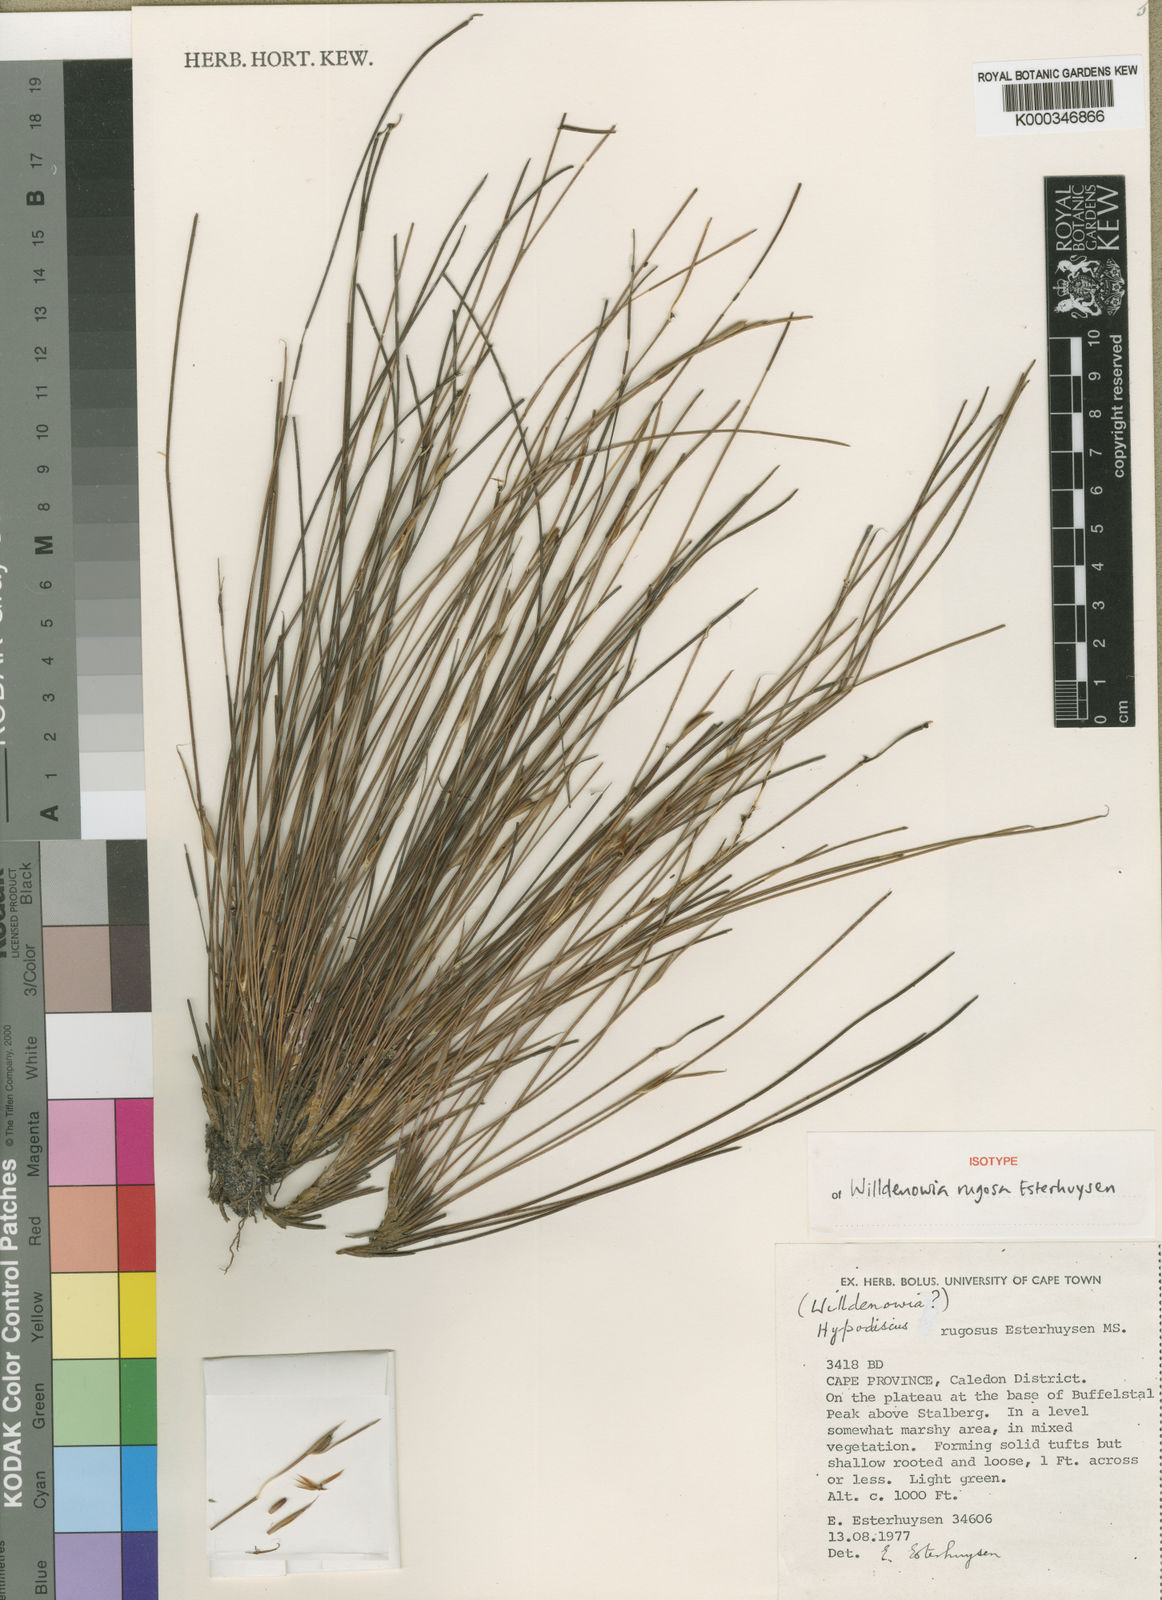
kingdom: Plantae
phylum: Tracheophyta
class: Liliopsida
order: Poales
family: Restionaceae
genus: Willdenowia
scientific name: Willdenowia rugosa
